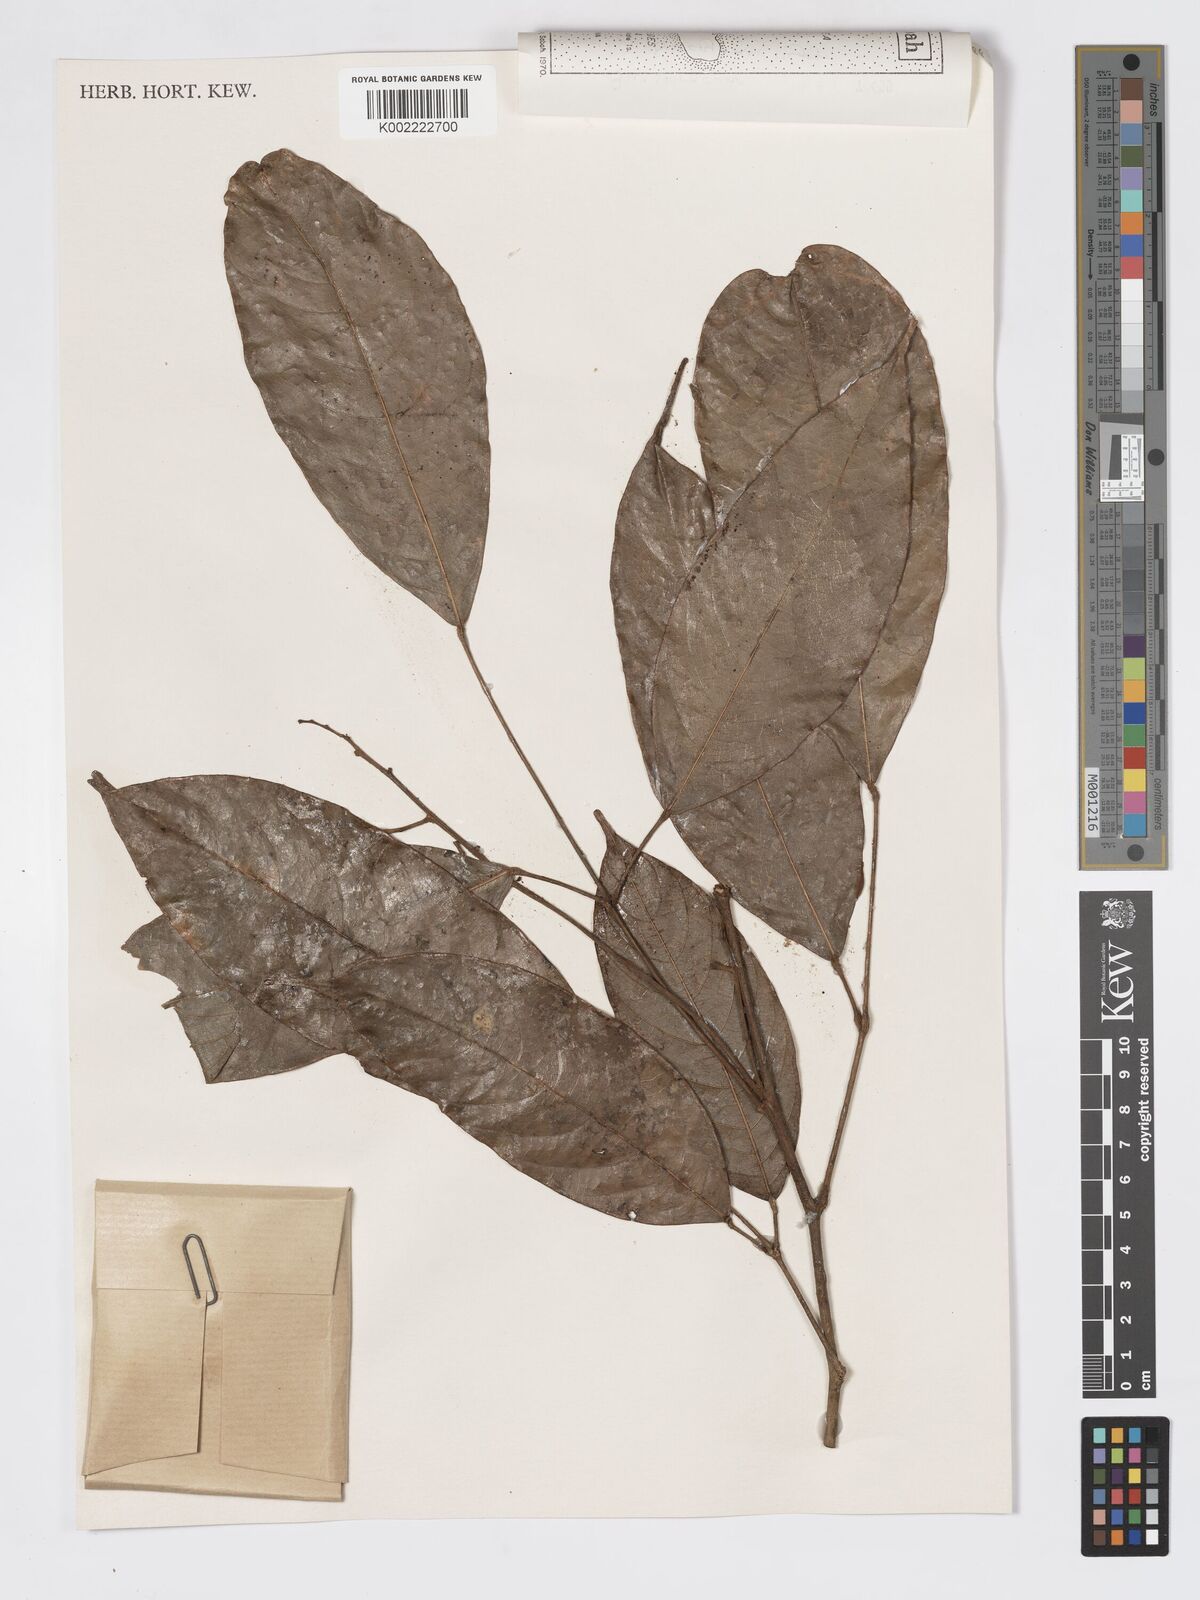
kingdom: Plantae
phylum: Tracheophyta
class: Magnoliopsida
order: Sapindales
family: Burseraceae
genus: Dacryodes
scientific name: Dacryodes rugosa
